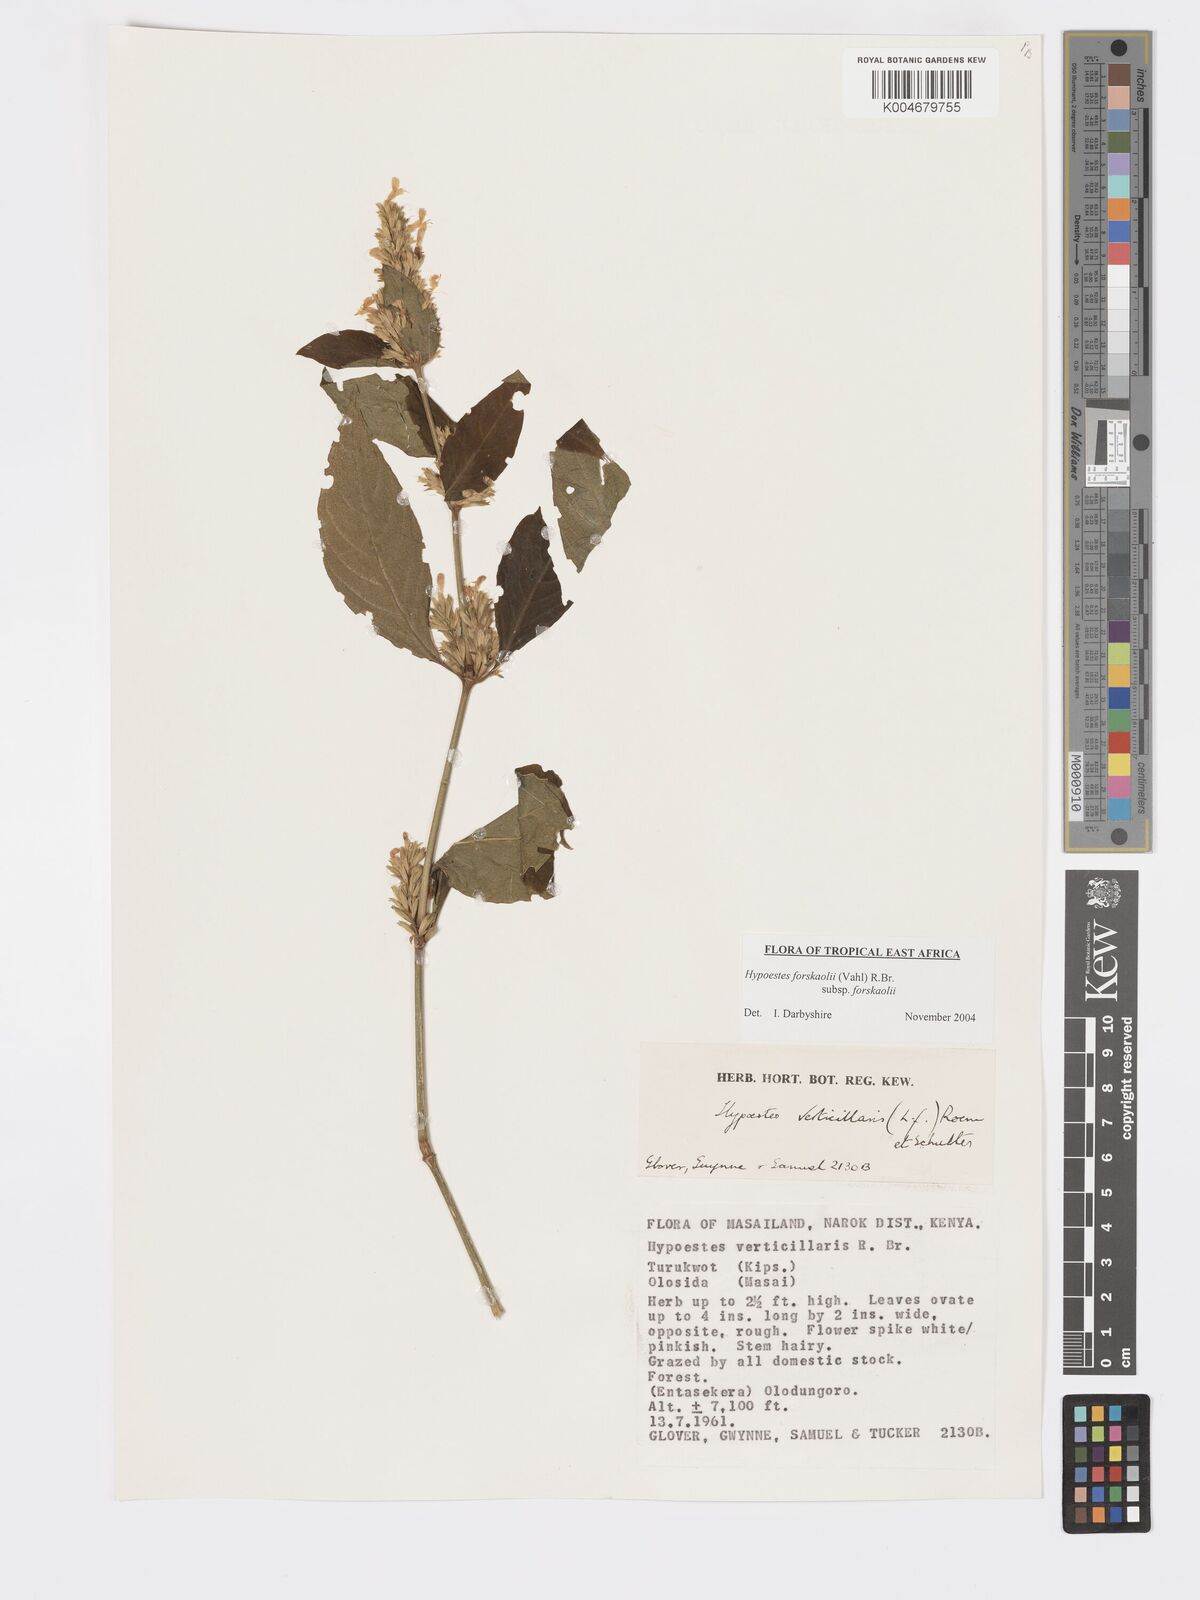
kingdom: Plantae
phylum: Tracheophyta
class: Magnoliopsida
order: Lamiales
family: Acanthaceae
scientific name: Acanthaceae
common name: Acanthaceae
